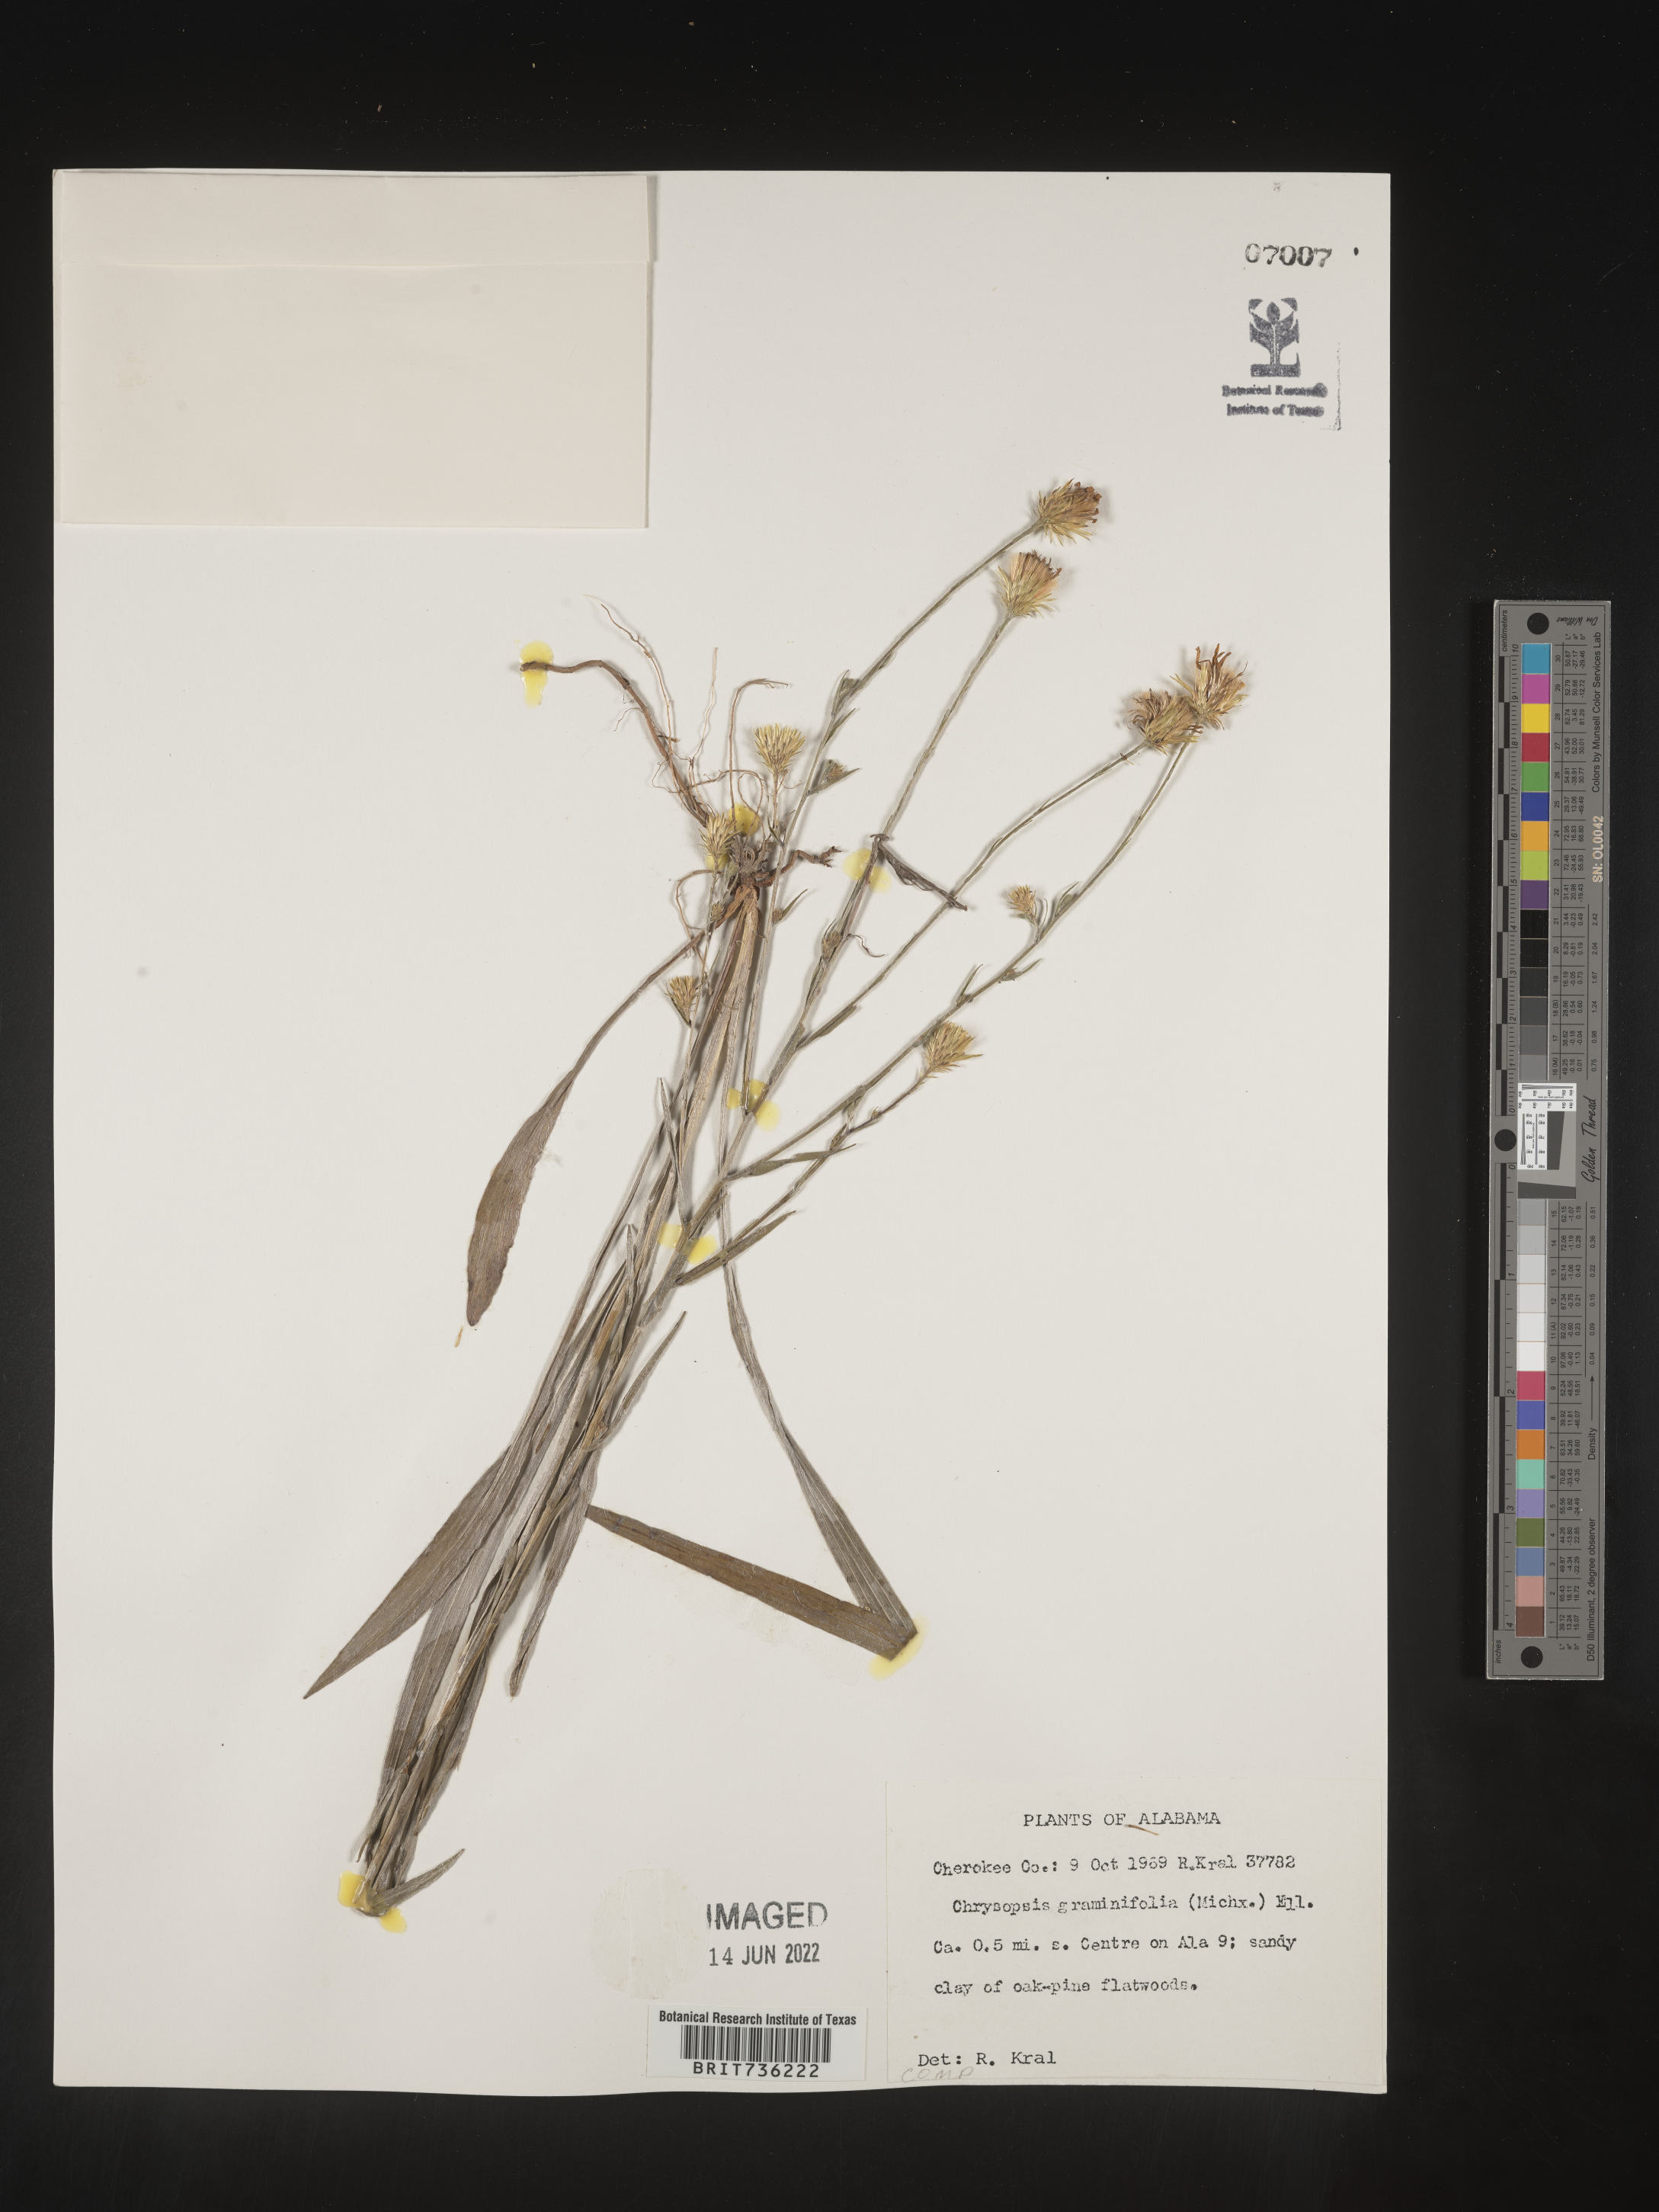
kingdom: Plantae
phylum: Tracheophyta
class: Magnoliopsida
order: Asterales
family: Asteraceae
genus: Pityopsis
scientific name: Pityopsis graminifolia
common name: Grass-leaf golden-aster
